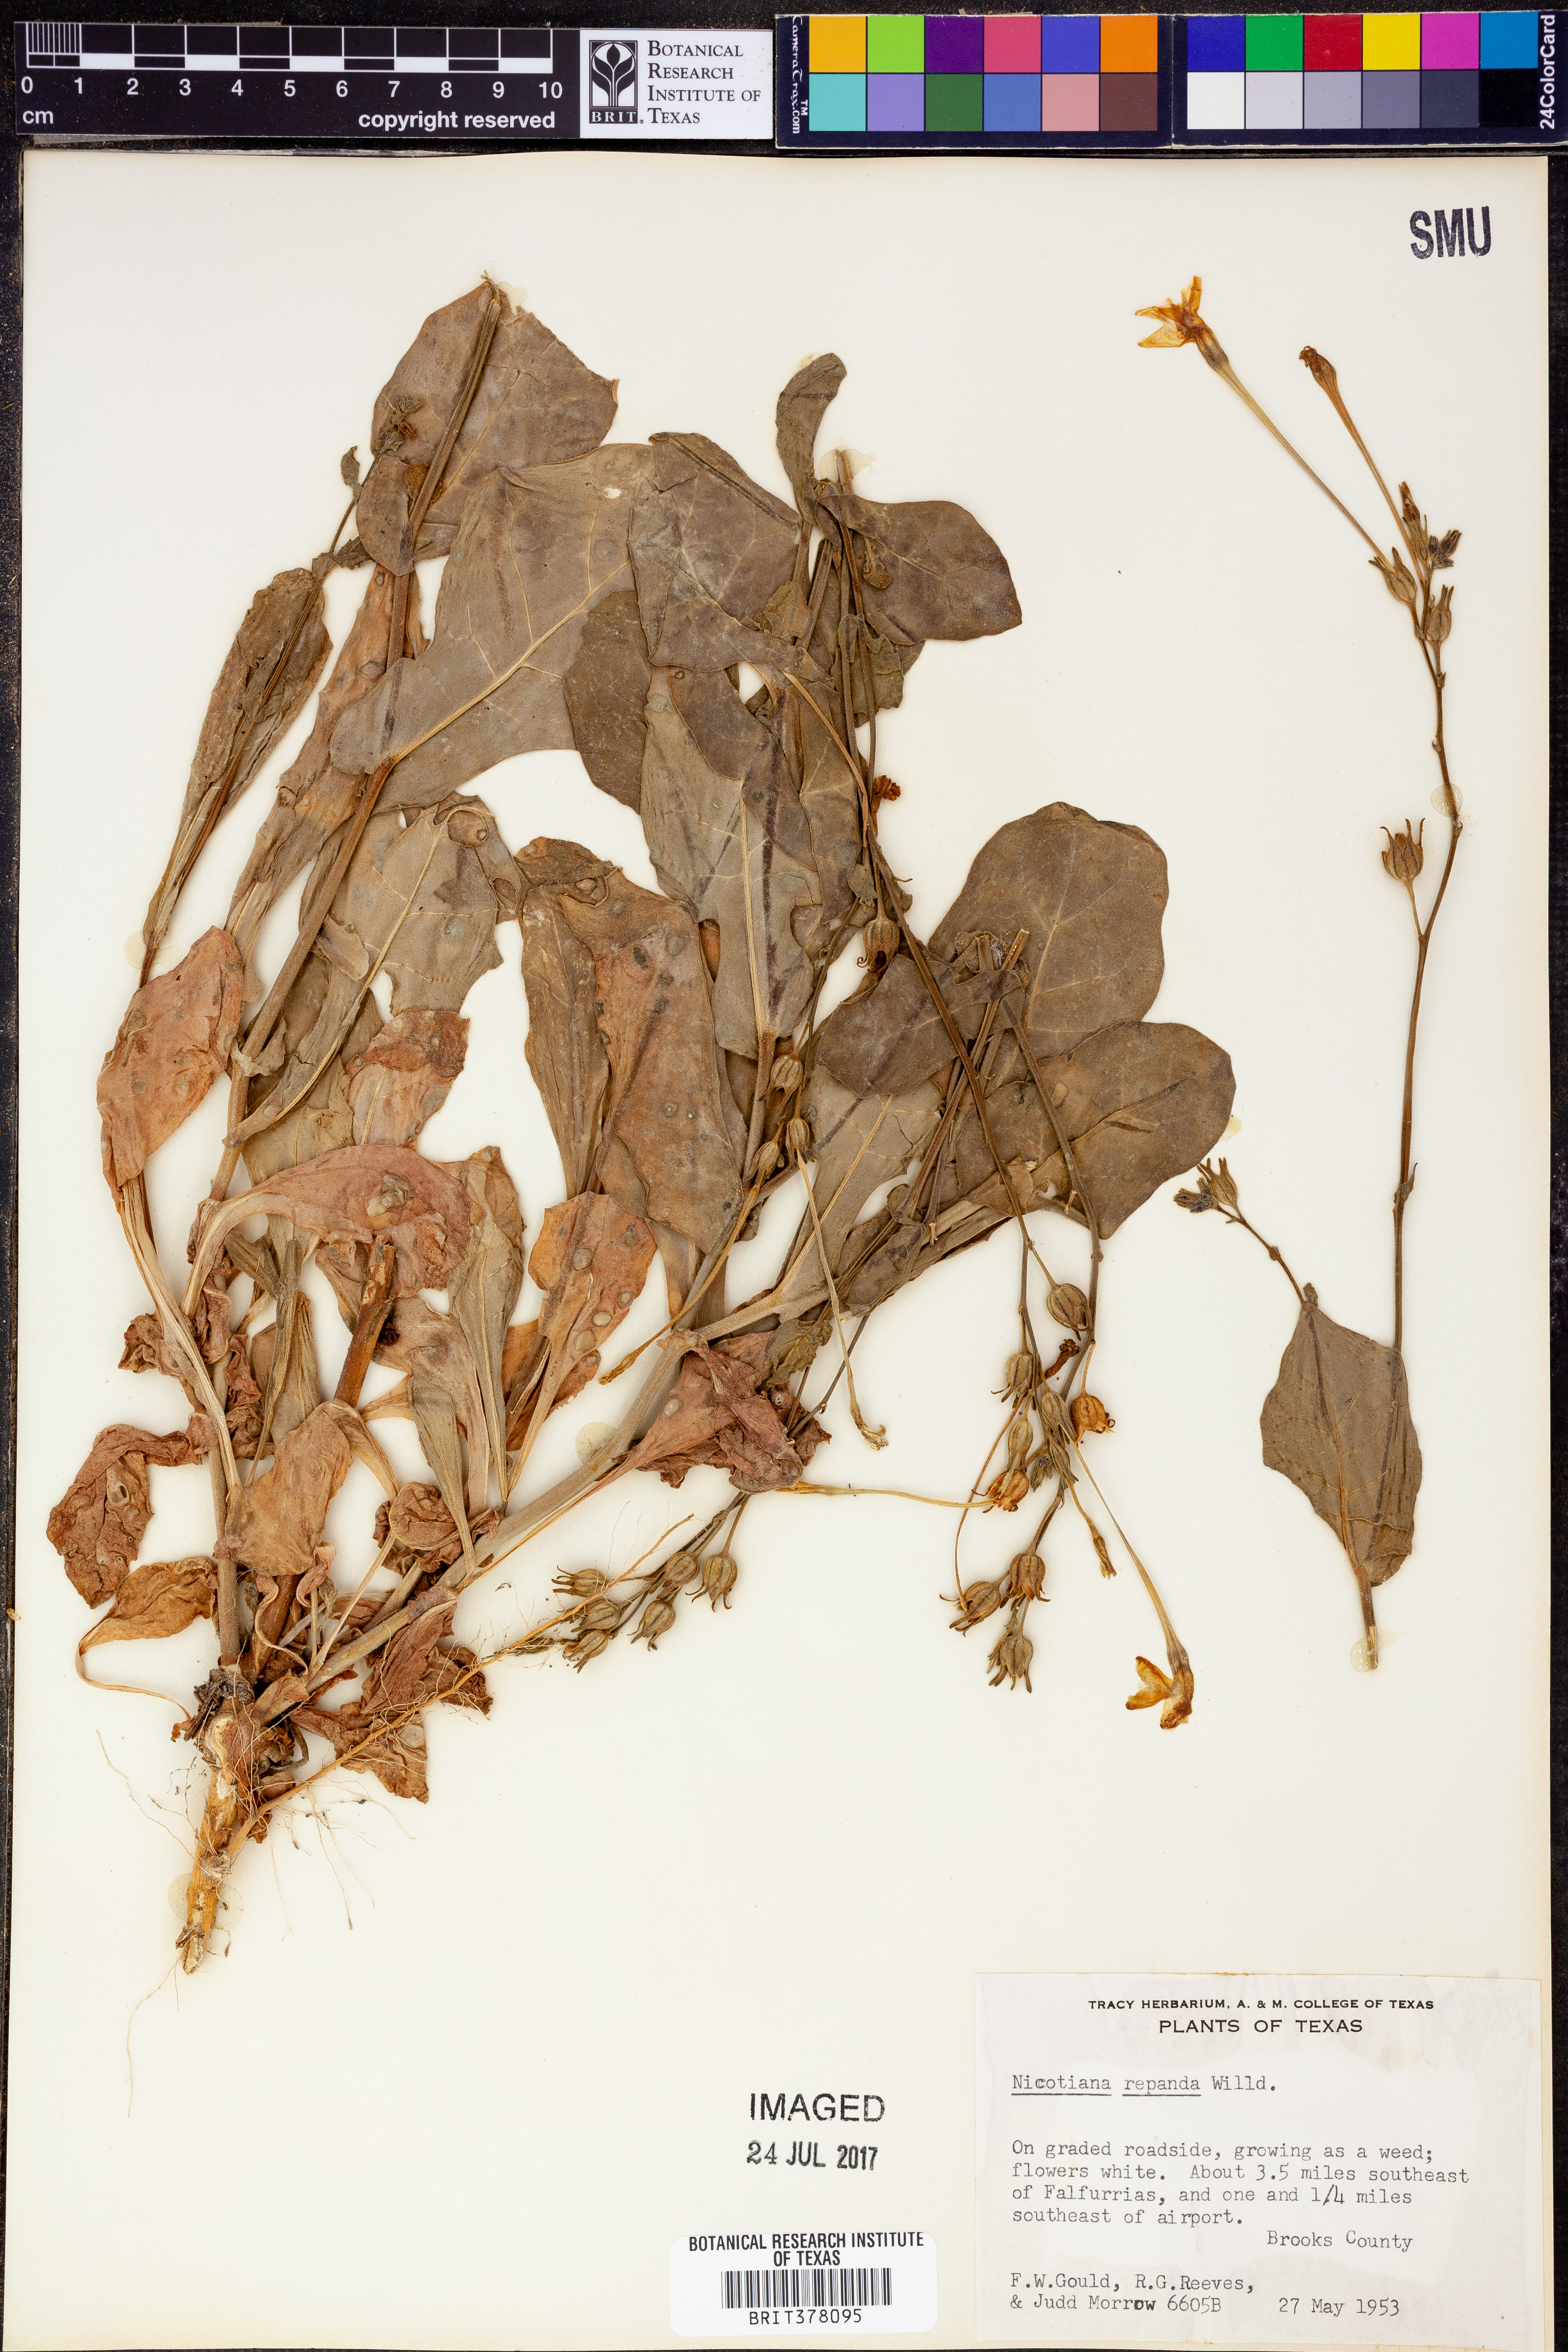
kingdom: Plantae
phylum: Tracheophyta
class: Magnoliopsida
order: Solanales
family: Solanaceae
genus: Nicotiana
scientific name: Nicotiana repanda
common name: Fiddle-leaf tobacco
